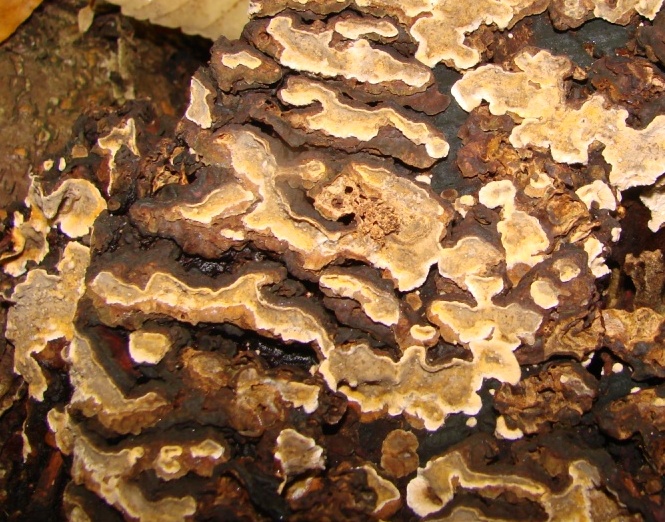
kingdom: Fungi
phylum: Basidiomycota
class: Agaricomycetes
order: Russulales
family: Stereaceae
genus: Stereum
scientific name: Stereum rugosum
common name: rynket lædersvamp
